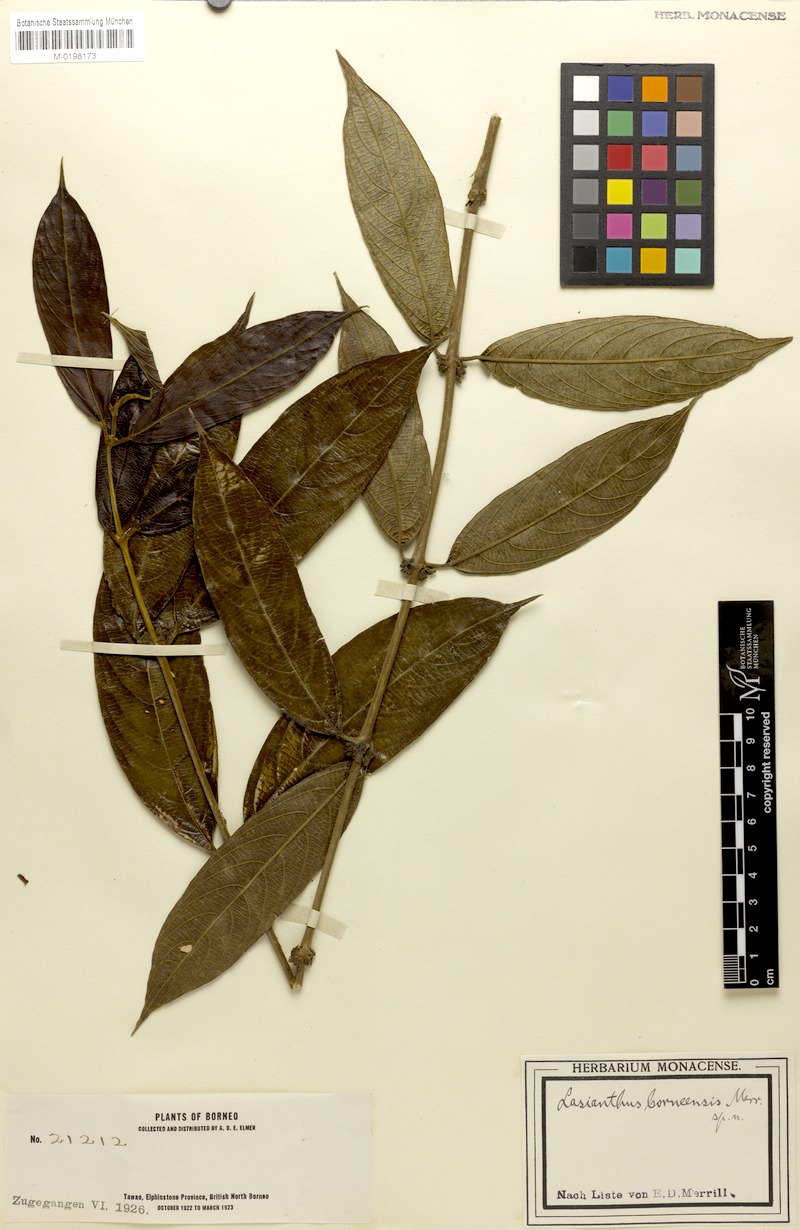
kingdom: Plantae
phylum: Tracheophyta
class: Magnoliopsida
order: Gentianales
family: Rubiaceae
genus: Lasianthus
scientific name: Lasianthus borneensis
